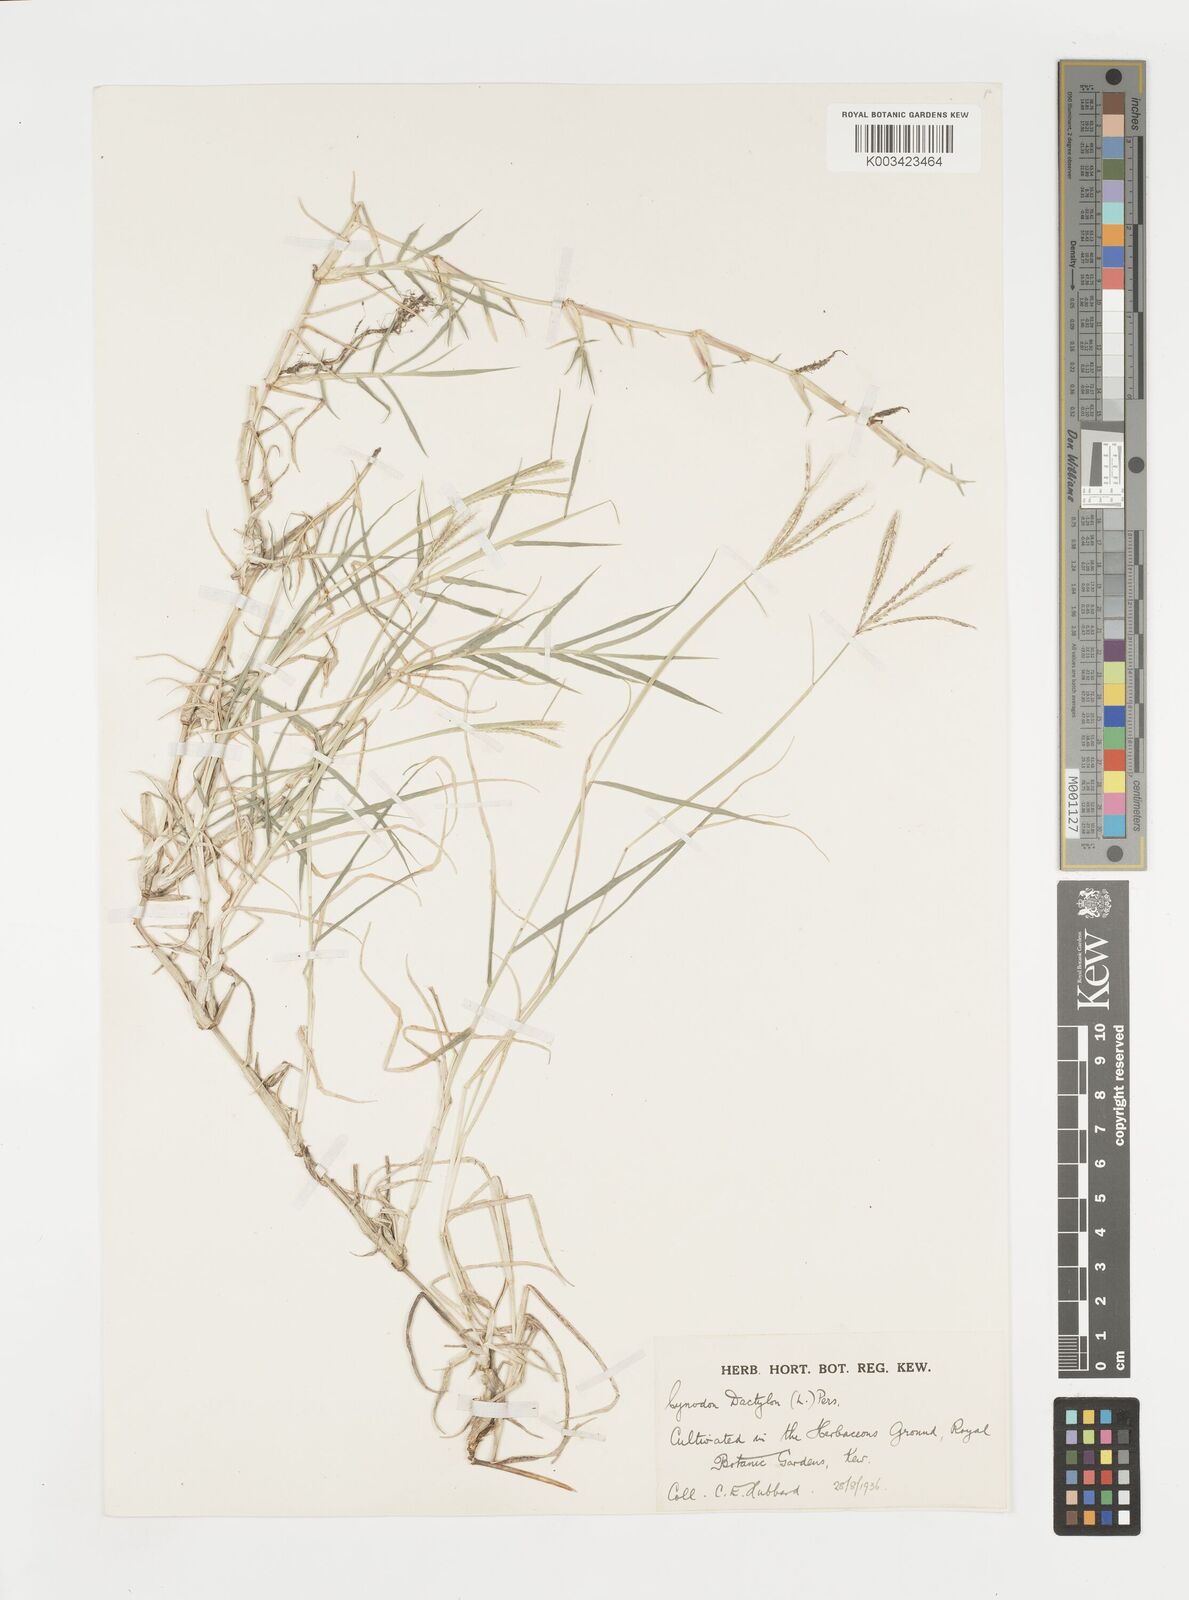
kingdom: Plantae
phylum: Tracheophyta
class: Liliopsida
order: Poales
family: Poaceae
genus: Cynodon
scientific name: Cynodon dactylon
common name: Bermuda grass
